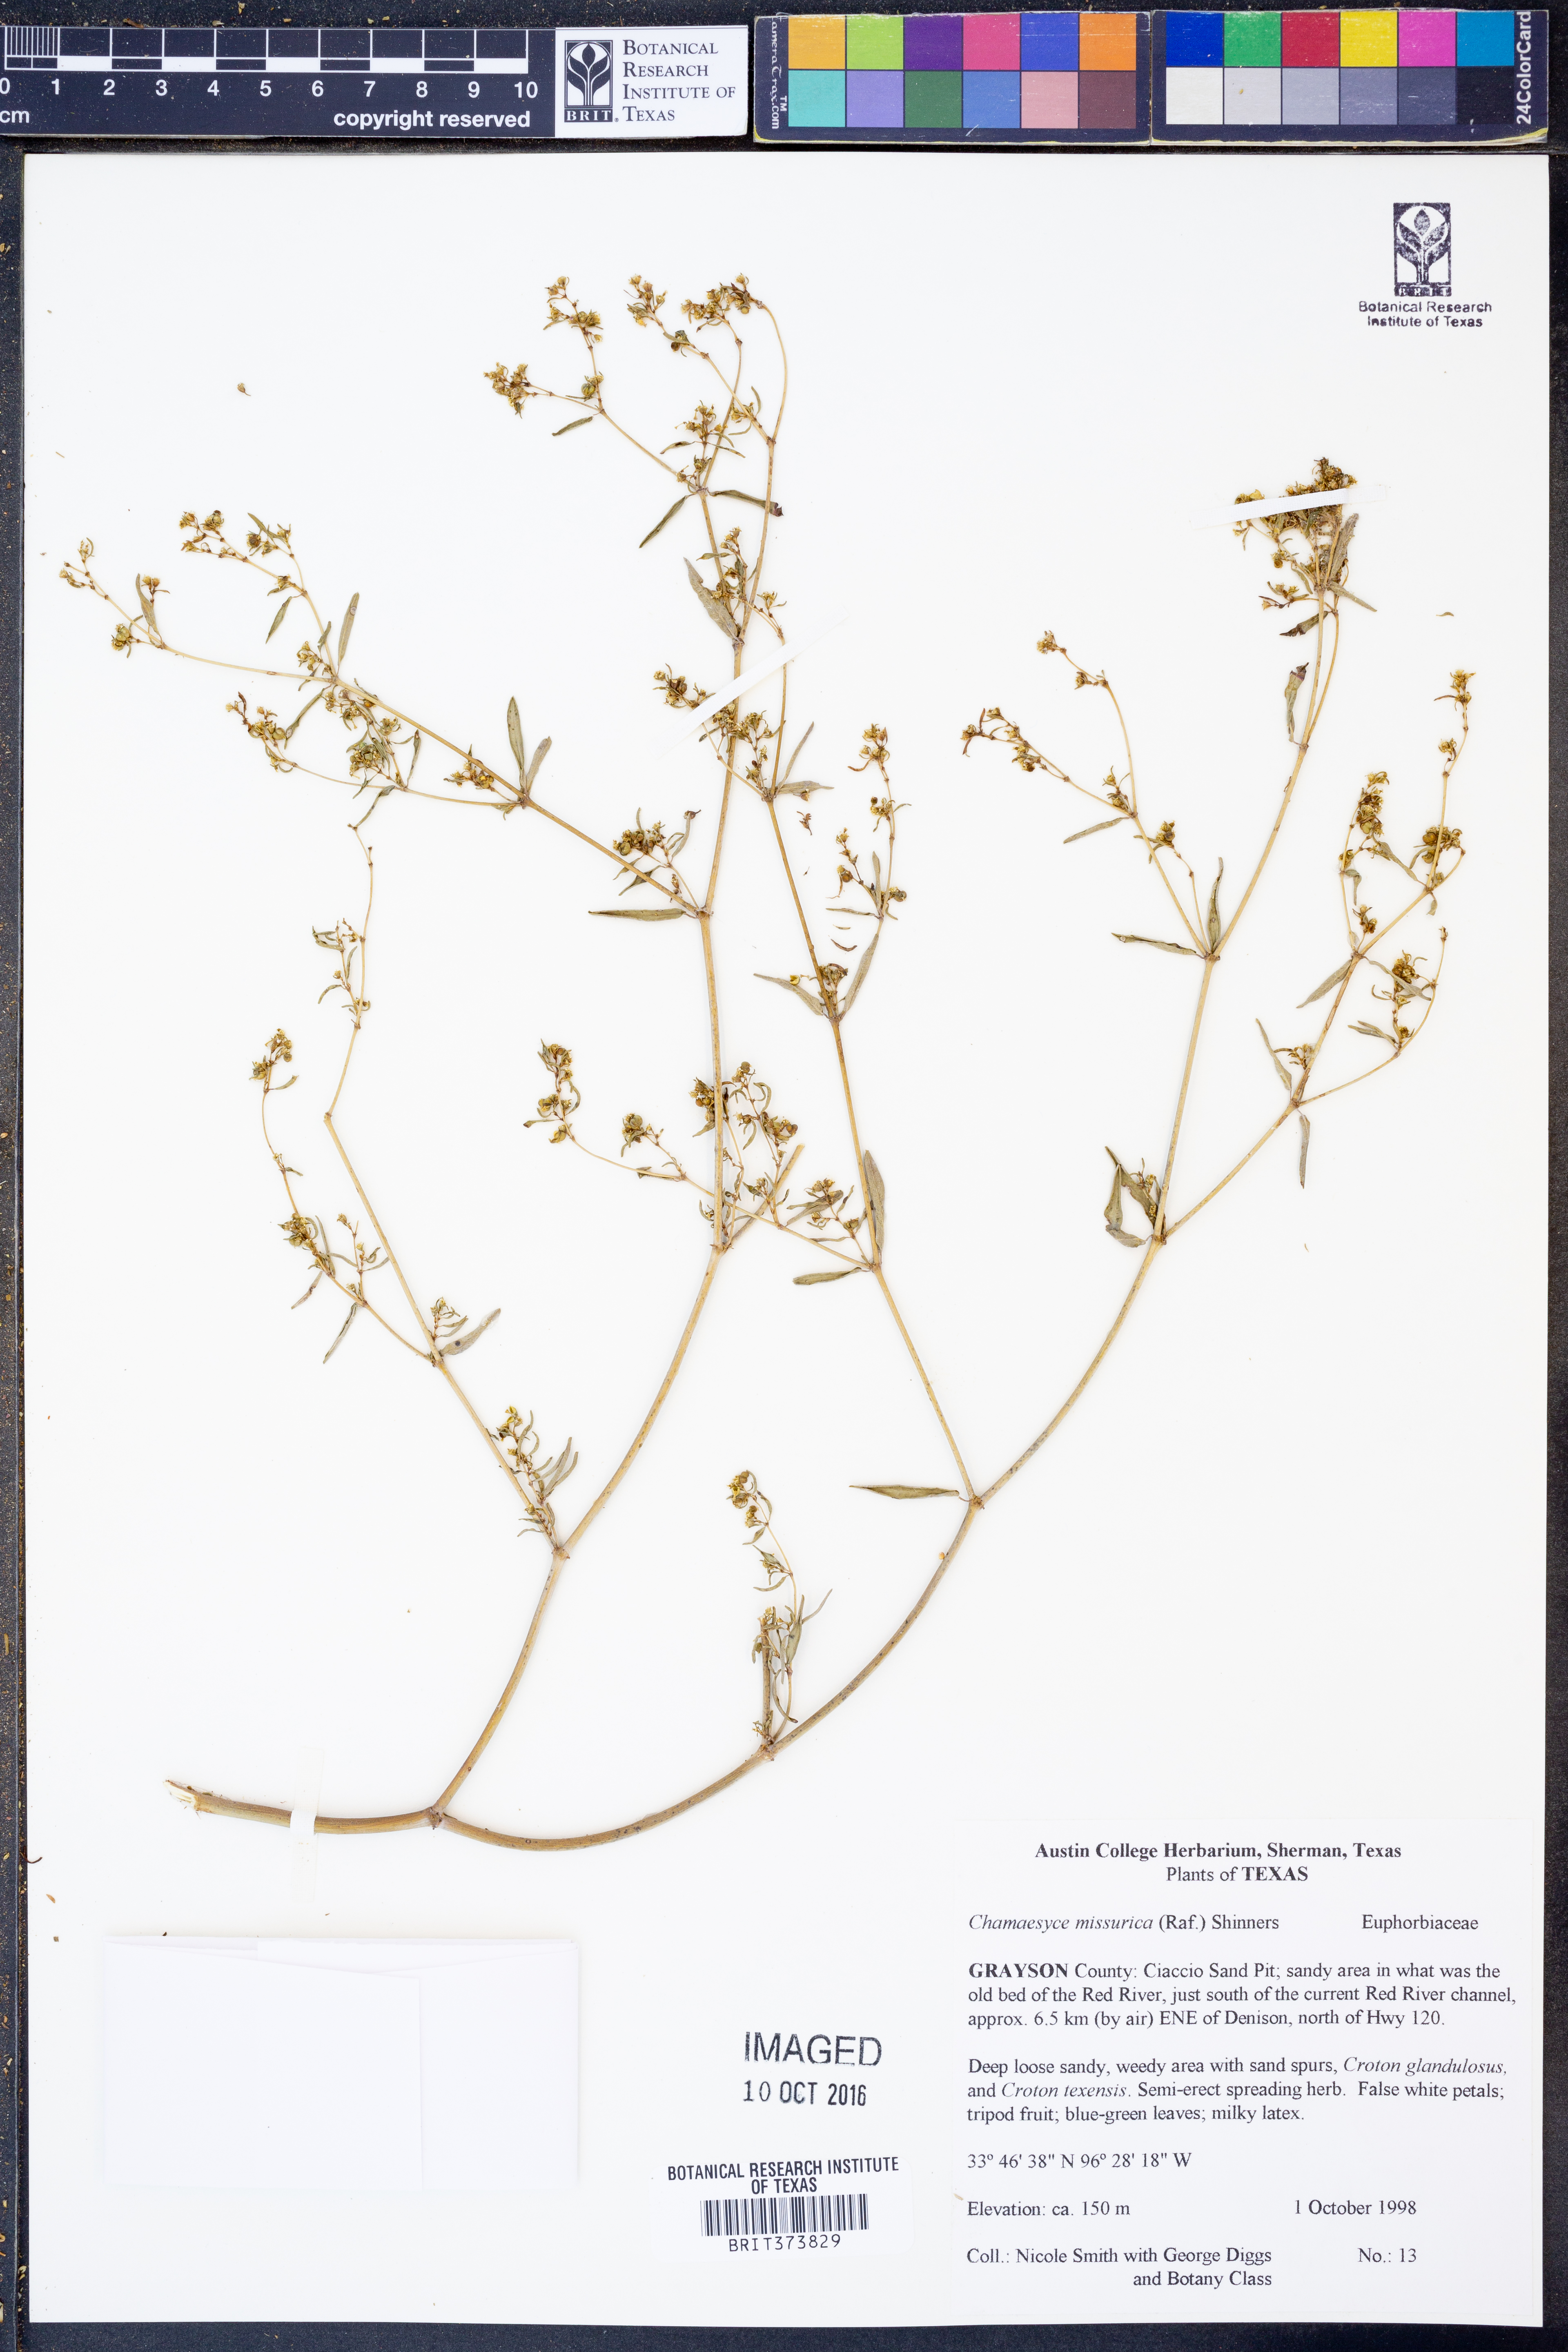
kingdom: Plantae
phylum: Tracheophyta
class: Magnoliopsida
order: Malpighiales
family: Euphorbiaceae
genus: Euphorbia
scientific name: Euphorbia missurica
